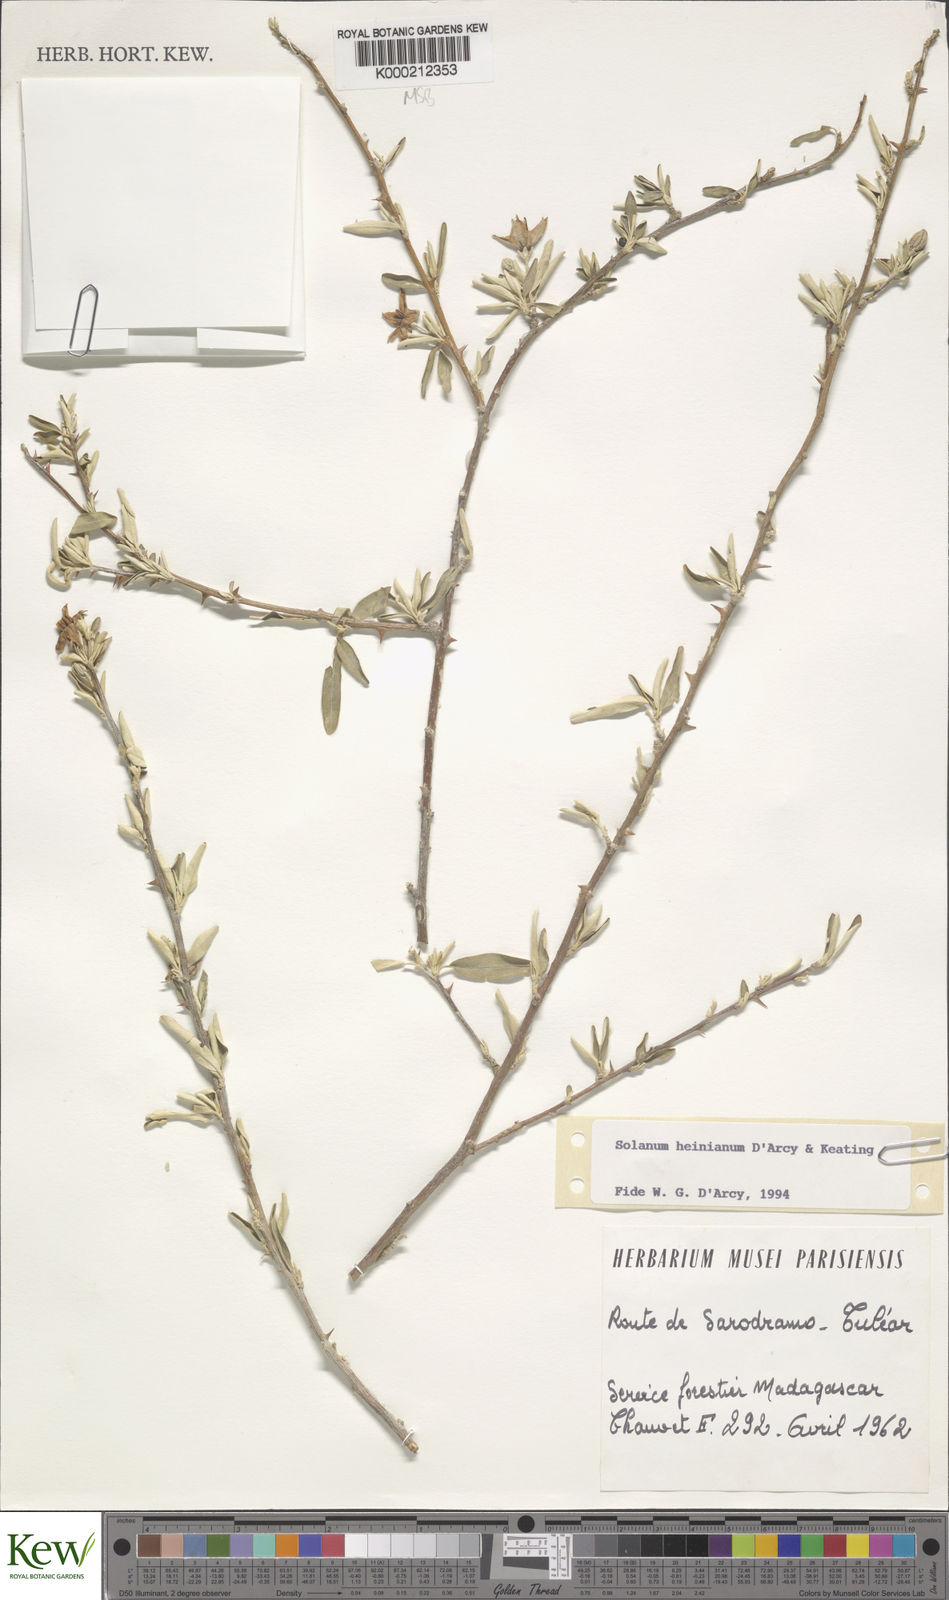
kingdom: Plantae
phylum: Tracheophyta
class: Magnoliopsida
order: Solanales
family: Solanaceae
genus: Solanum
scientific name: Solanum heinianum
